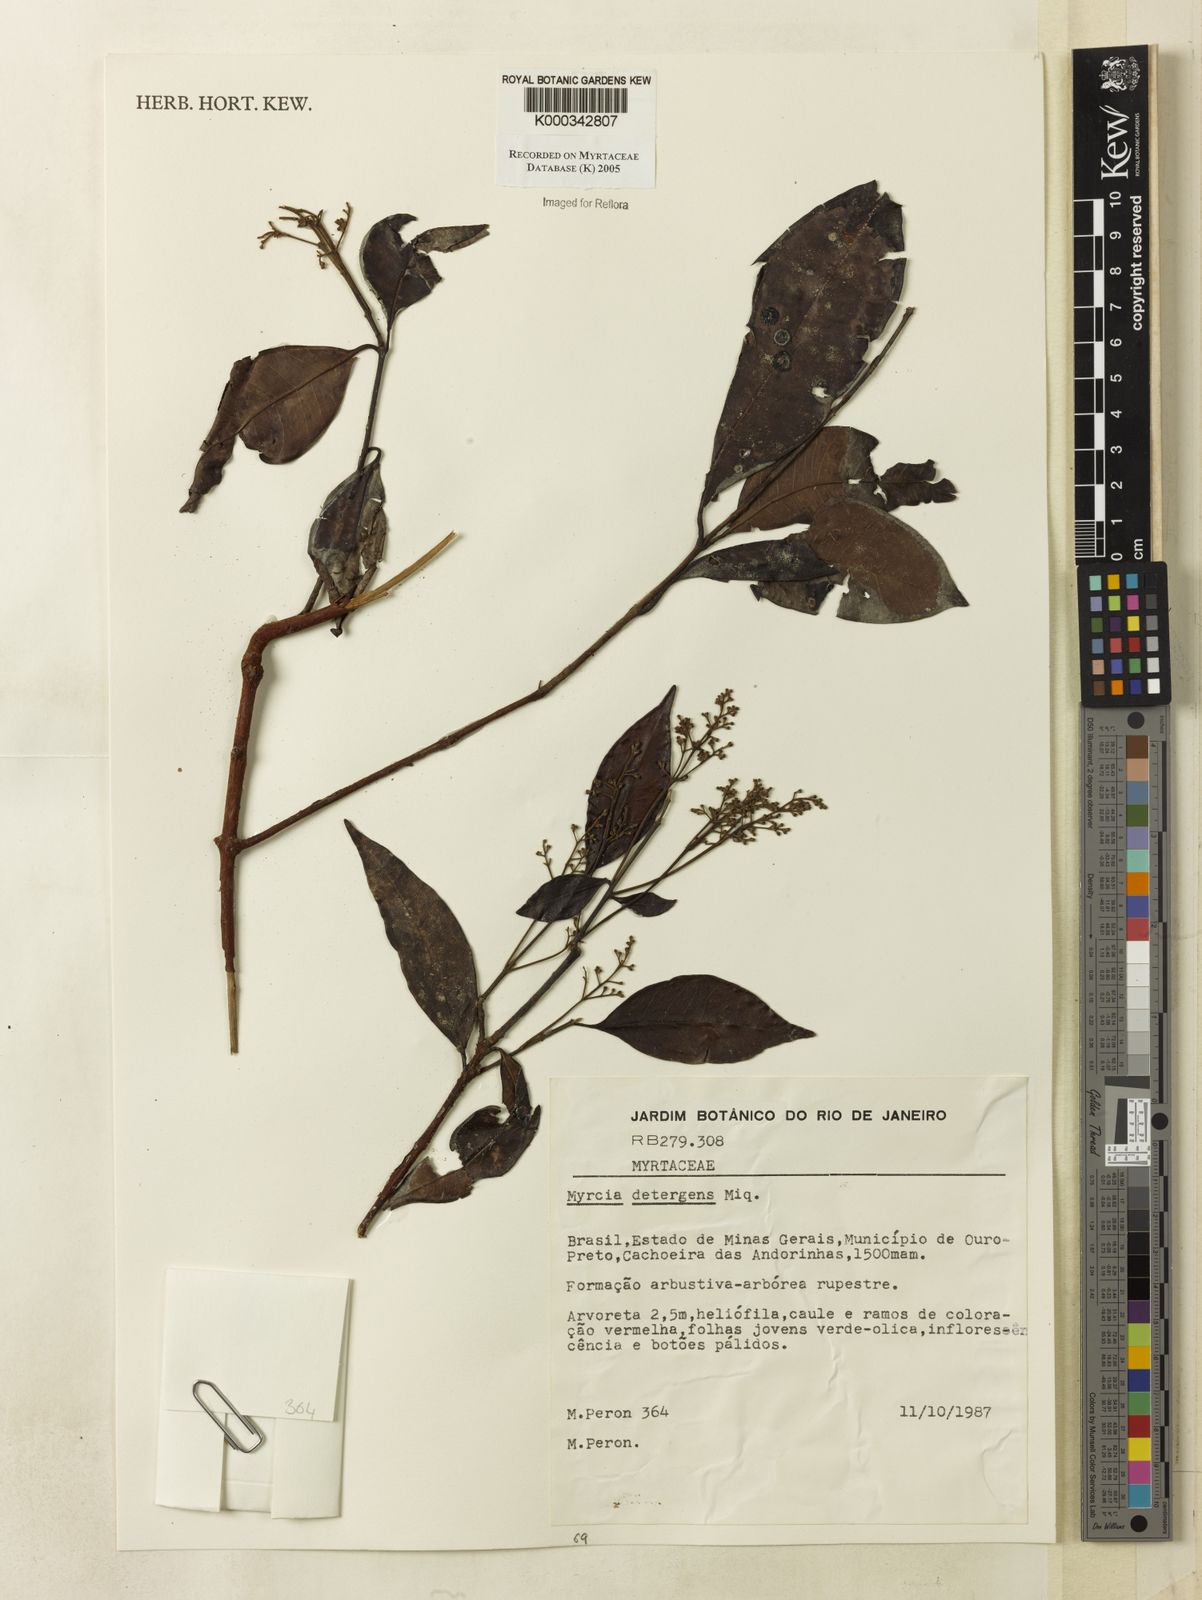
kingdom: Plantae
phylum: Tracheophyta
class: Magnoliopsida
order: Myrtales
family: Myrtaceae
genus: Myrcia
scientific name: Myrcia amazonica
